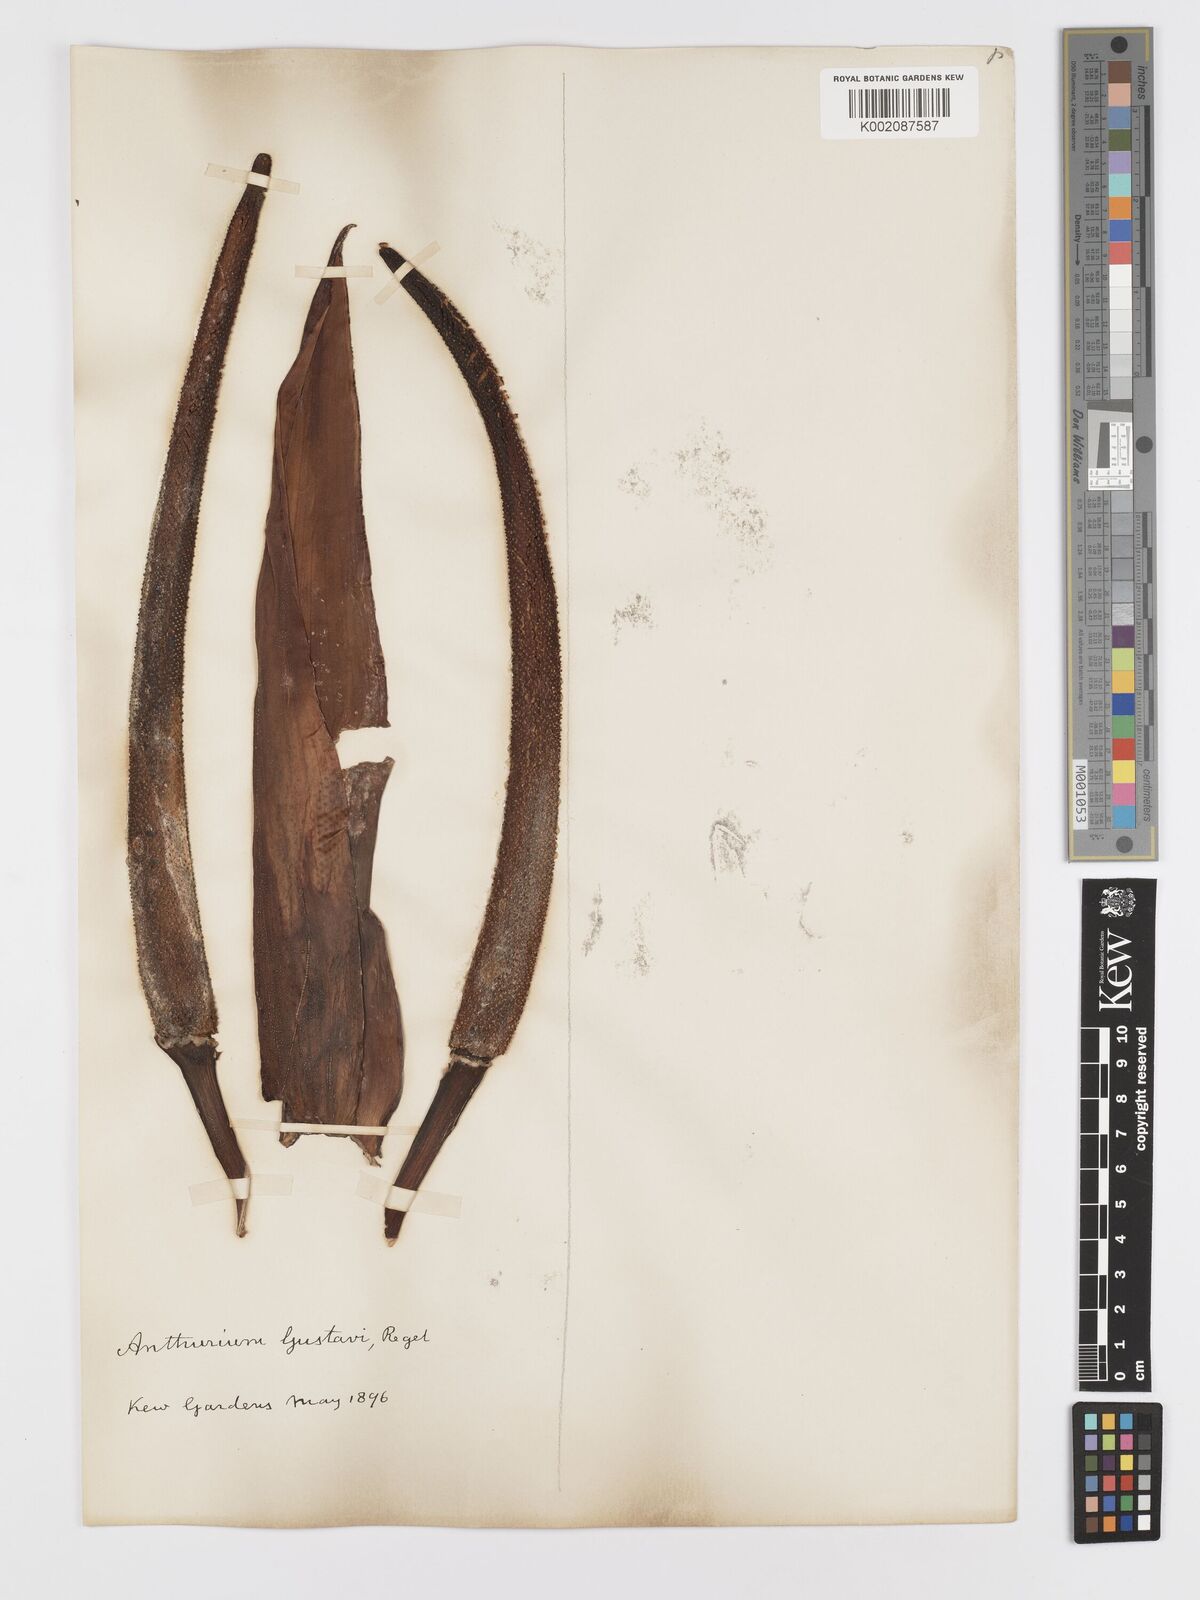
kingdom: Plantae
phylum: Tracheophyta
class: Liliopsida
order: Alismatales
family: Araceae
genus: Anthurium
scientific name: Anthurium gustavii
